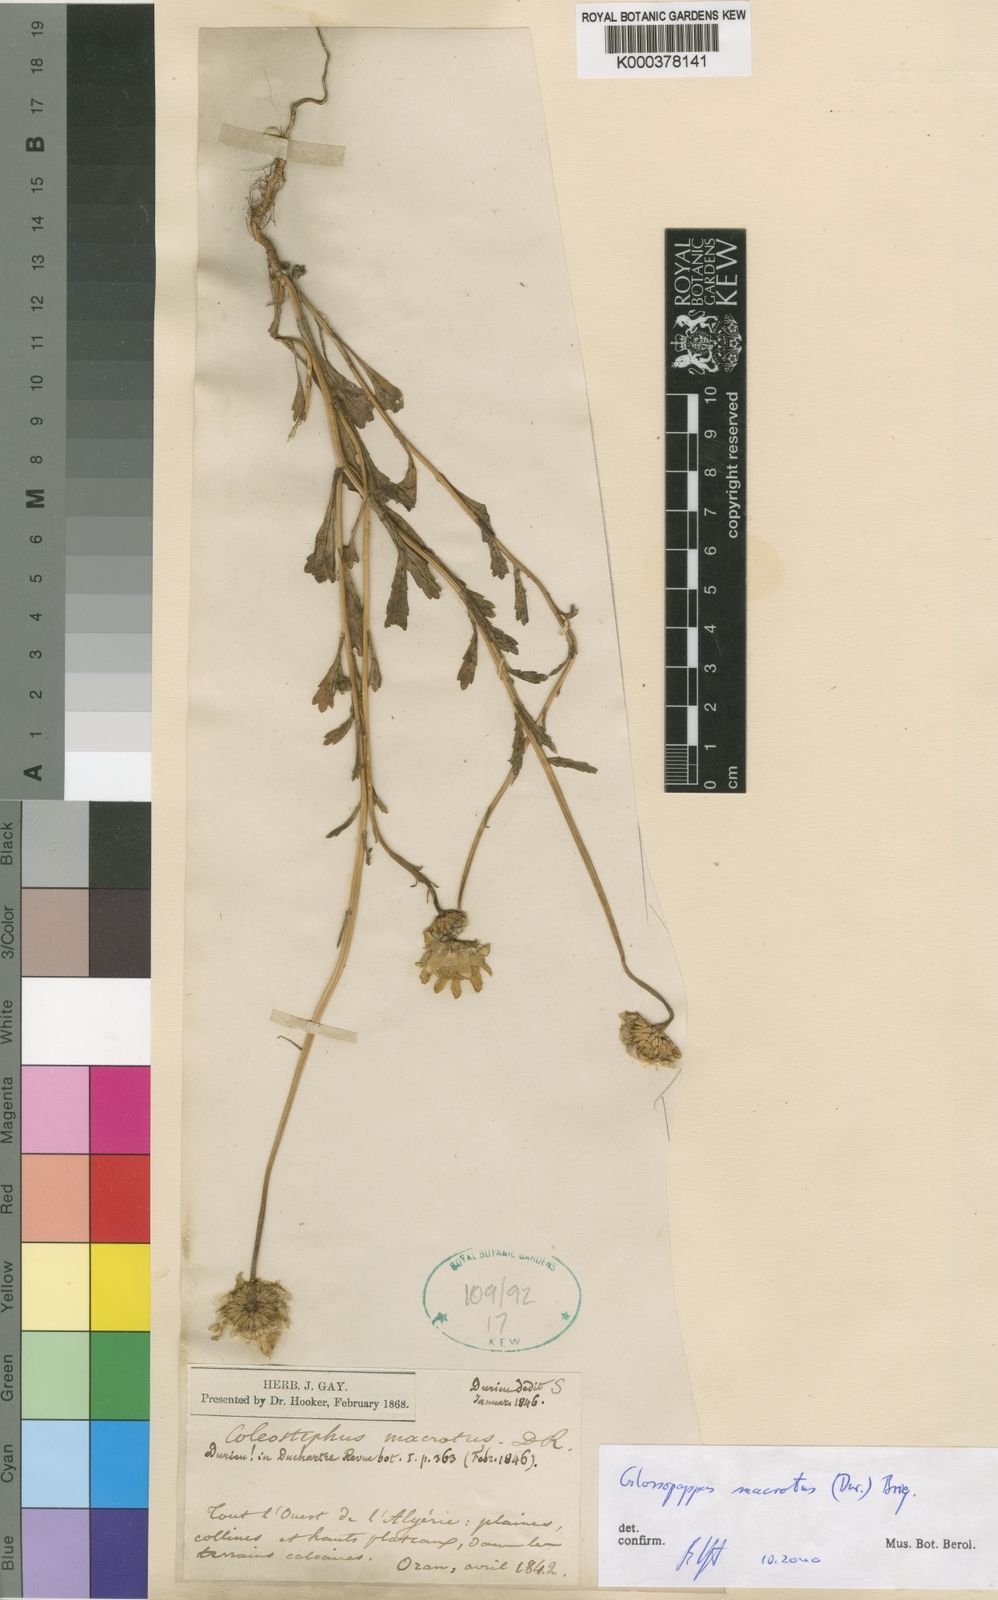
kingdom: Plantae
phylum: Tracheophyta
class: Magnoliopsida
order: Asterales
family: Asteraceae
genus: Chrysanthoglossum
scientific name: Chrysanthoglossum
